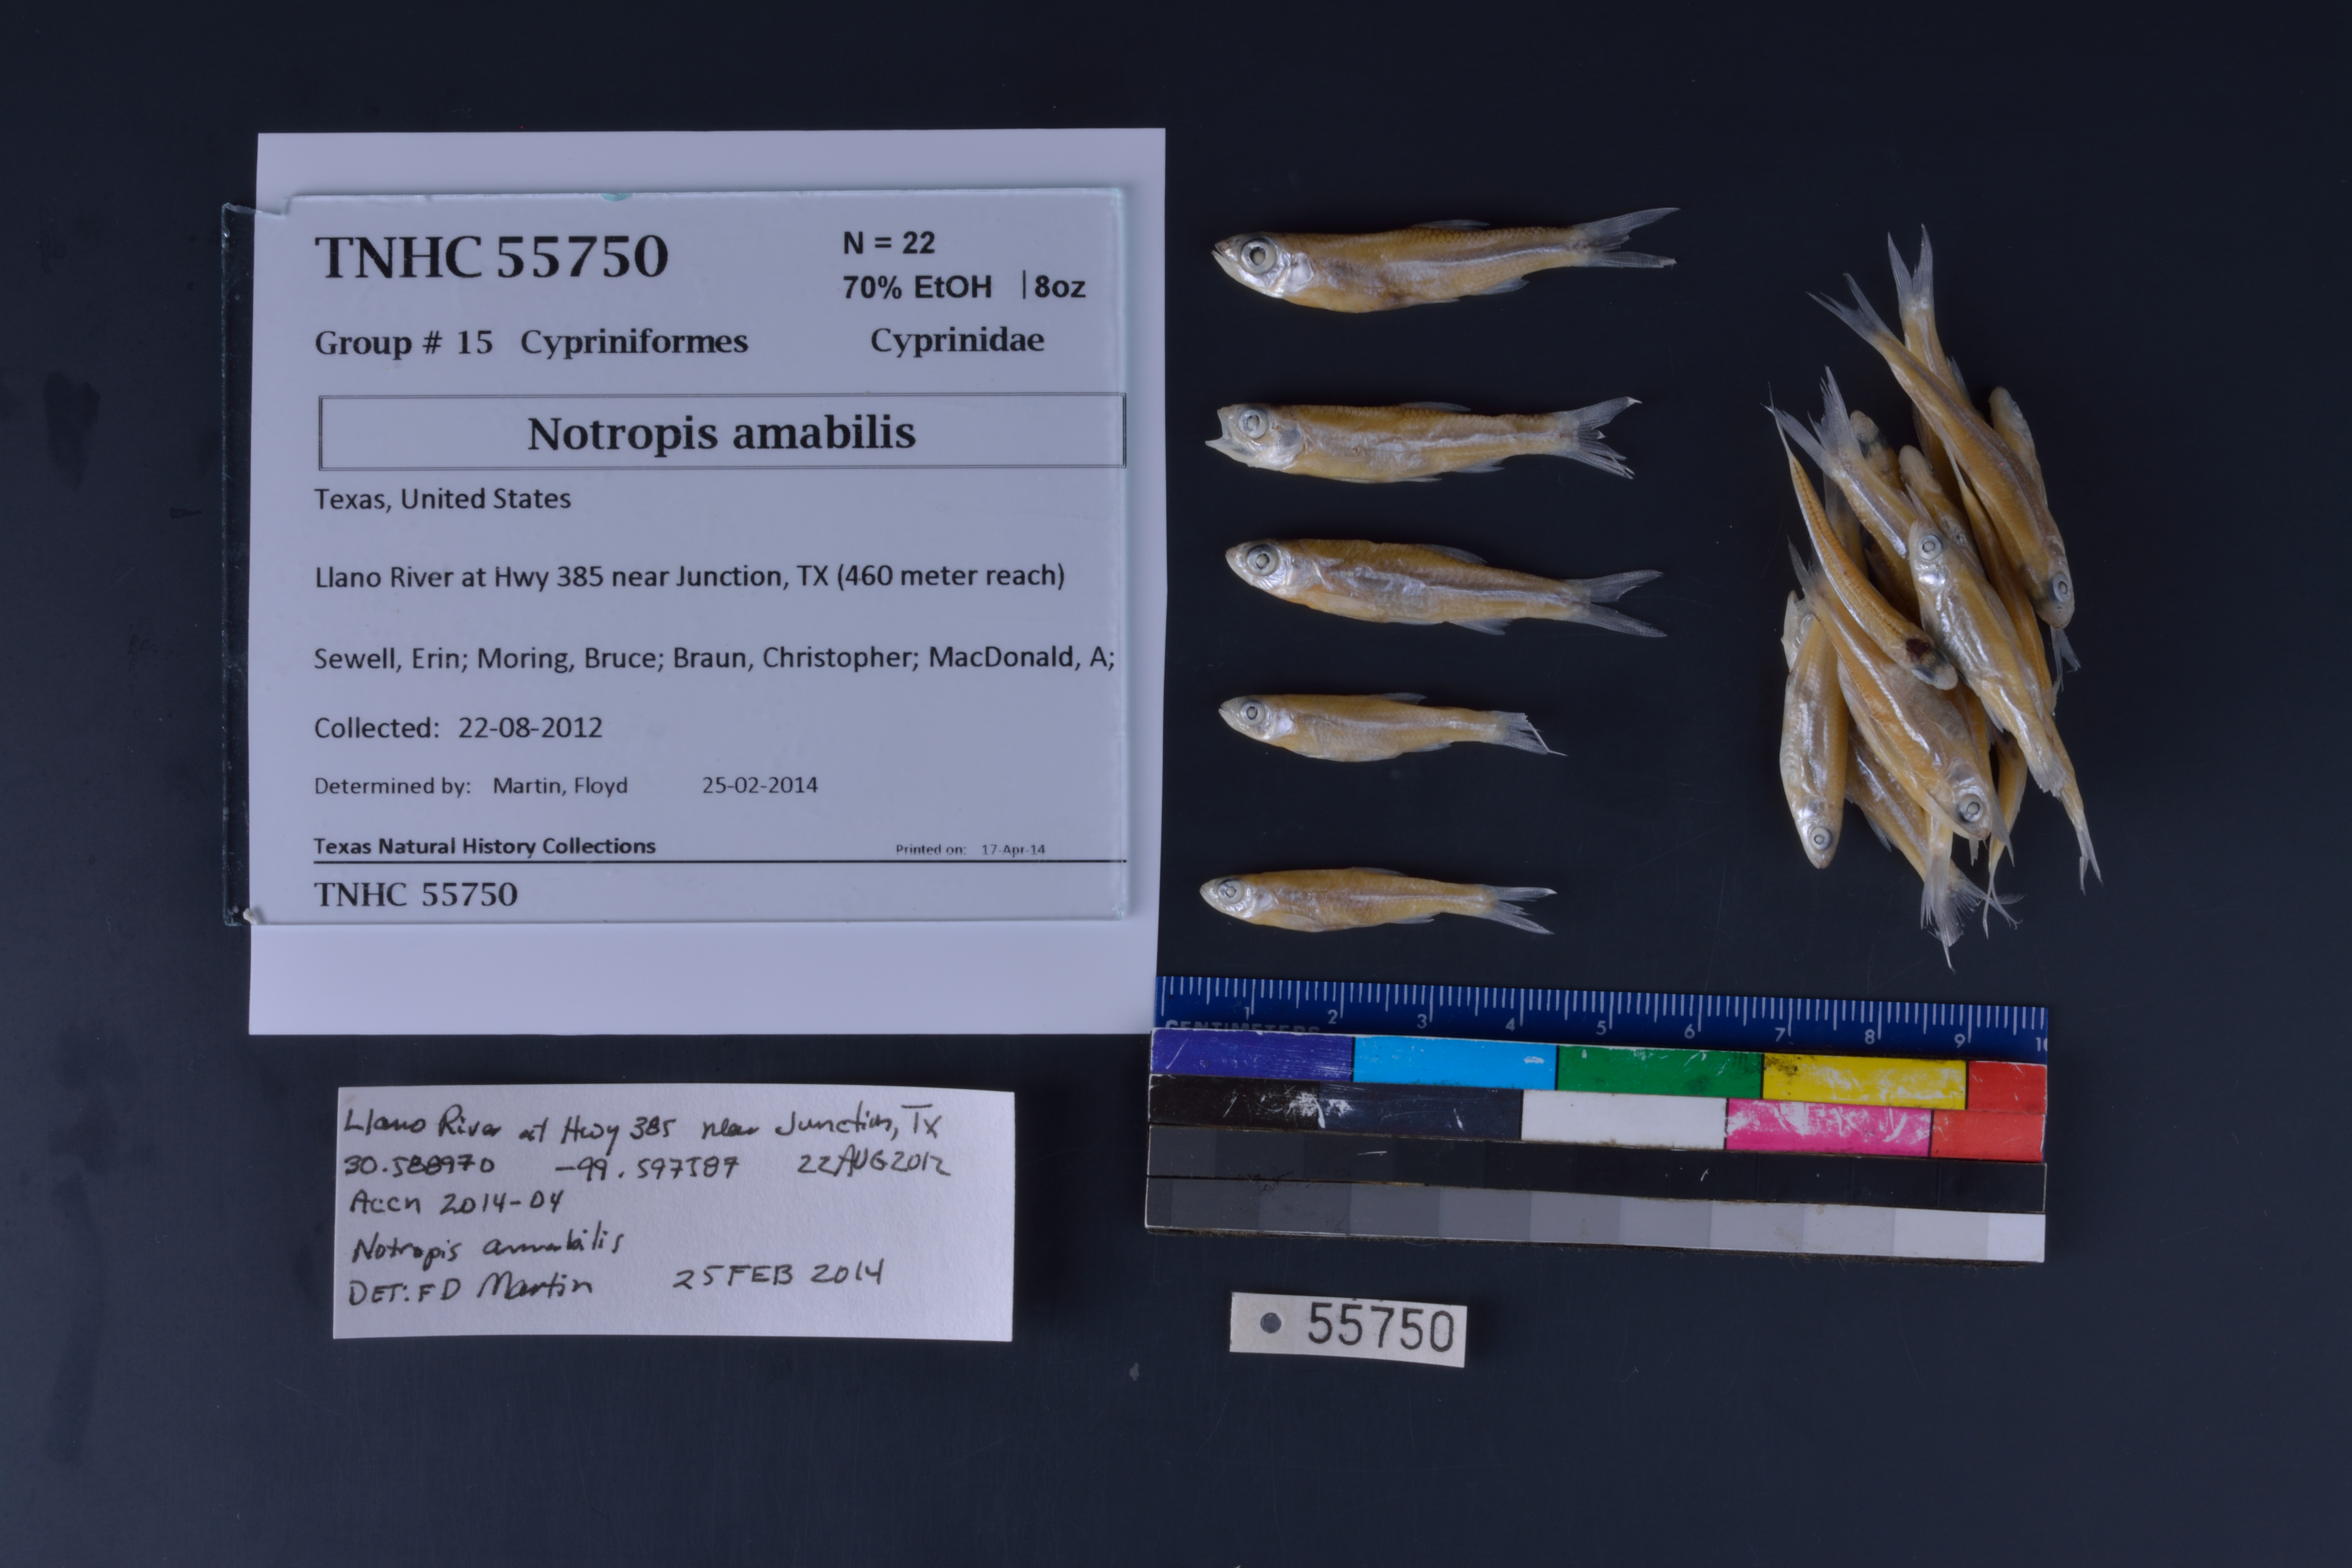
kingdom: Animalia
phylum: Chordata
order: Cypriniformes
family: Cyprinidae
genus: Notropis
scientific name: Notropis amabilis
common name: Texas shiner
